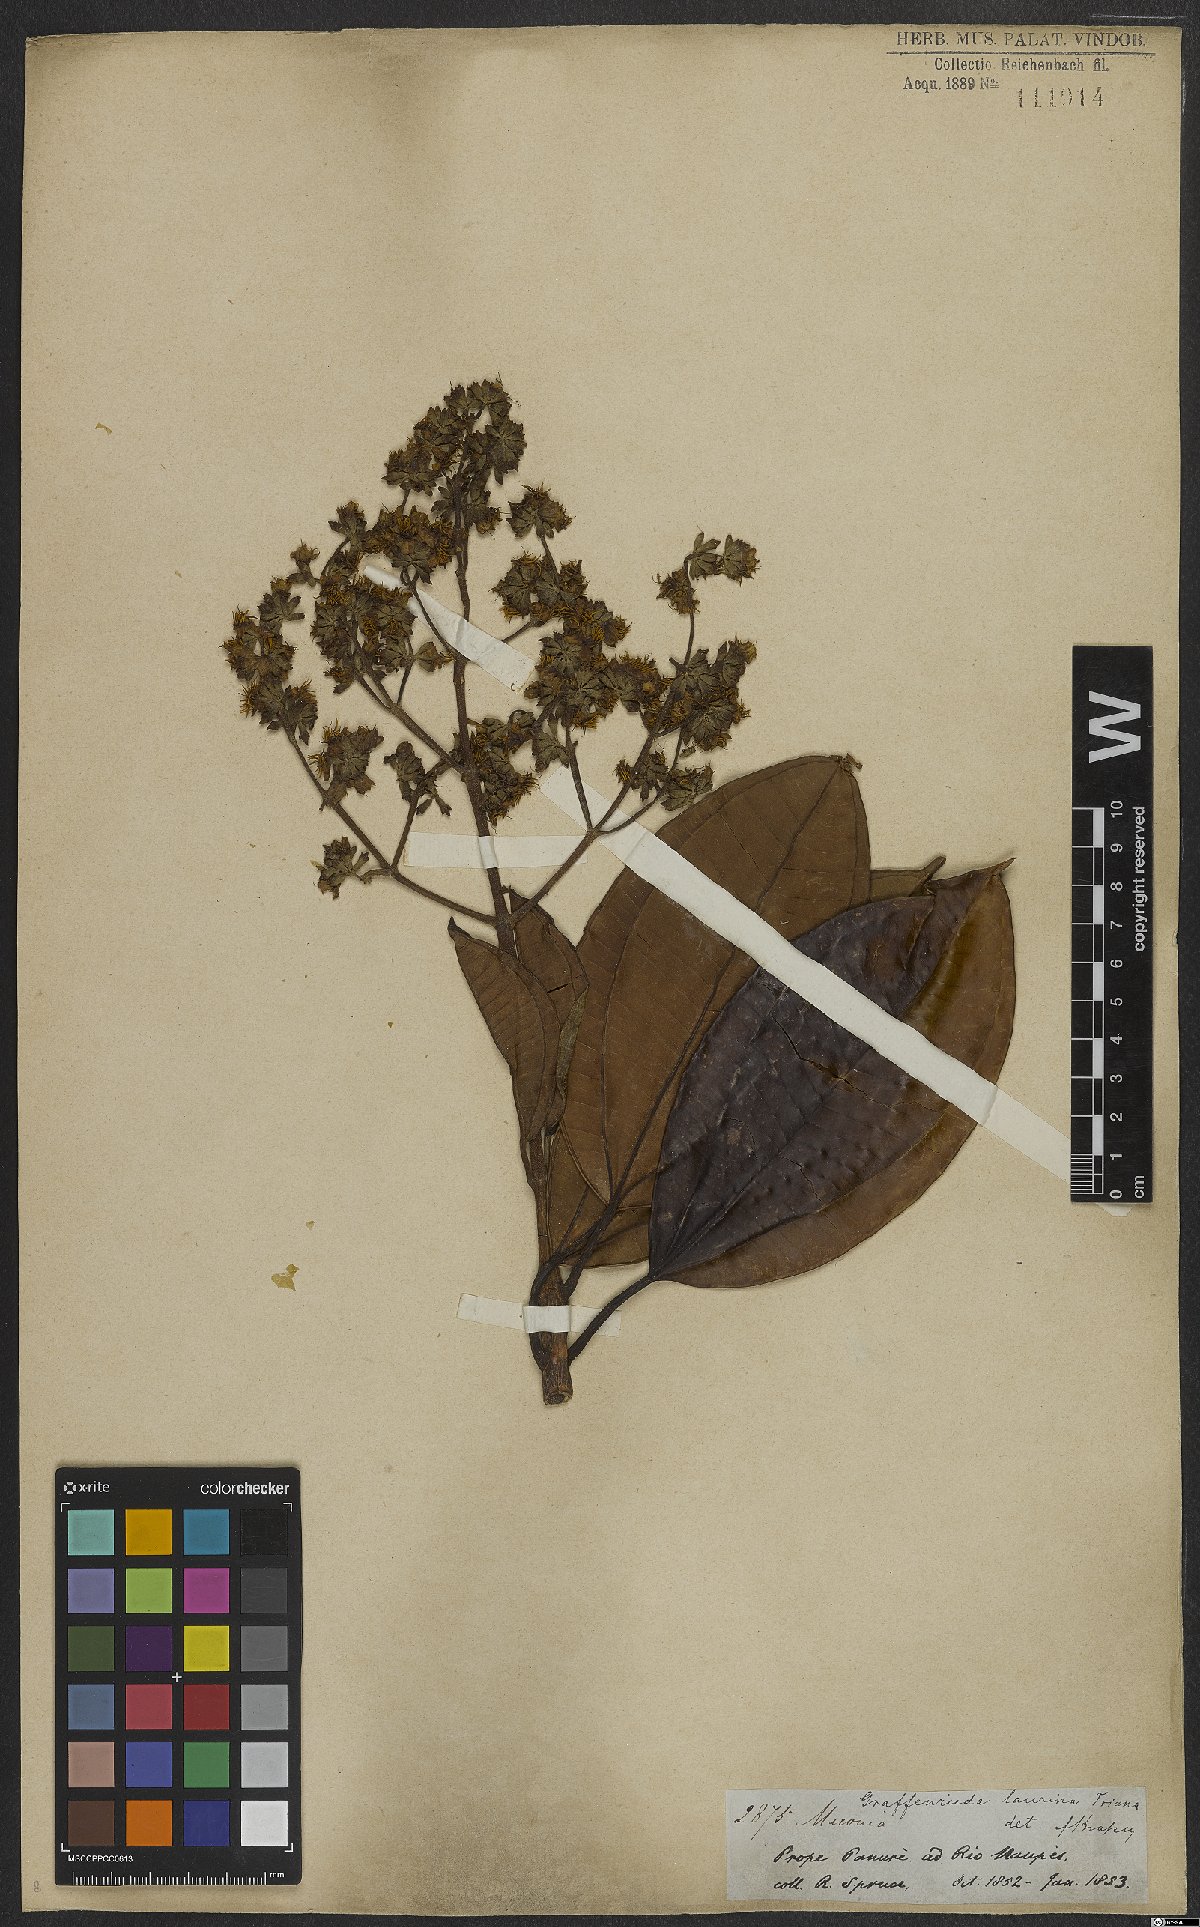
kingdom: Plantae
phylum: Tracheophyta
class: Magnoliopsida
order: Myrtales
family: Melastomataceae
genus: Graffenrieda
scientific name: Graffenrieda laurina
